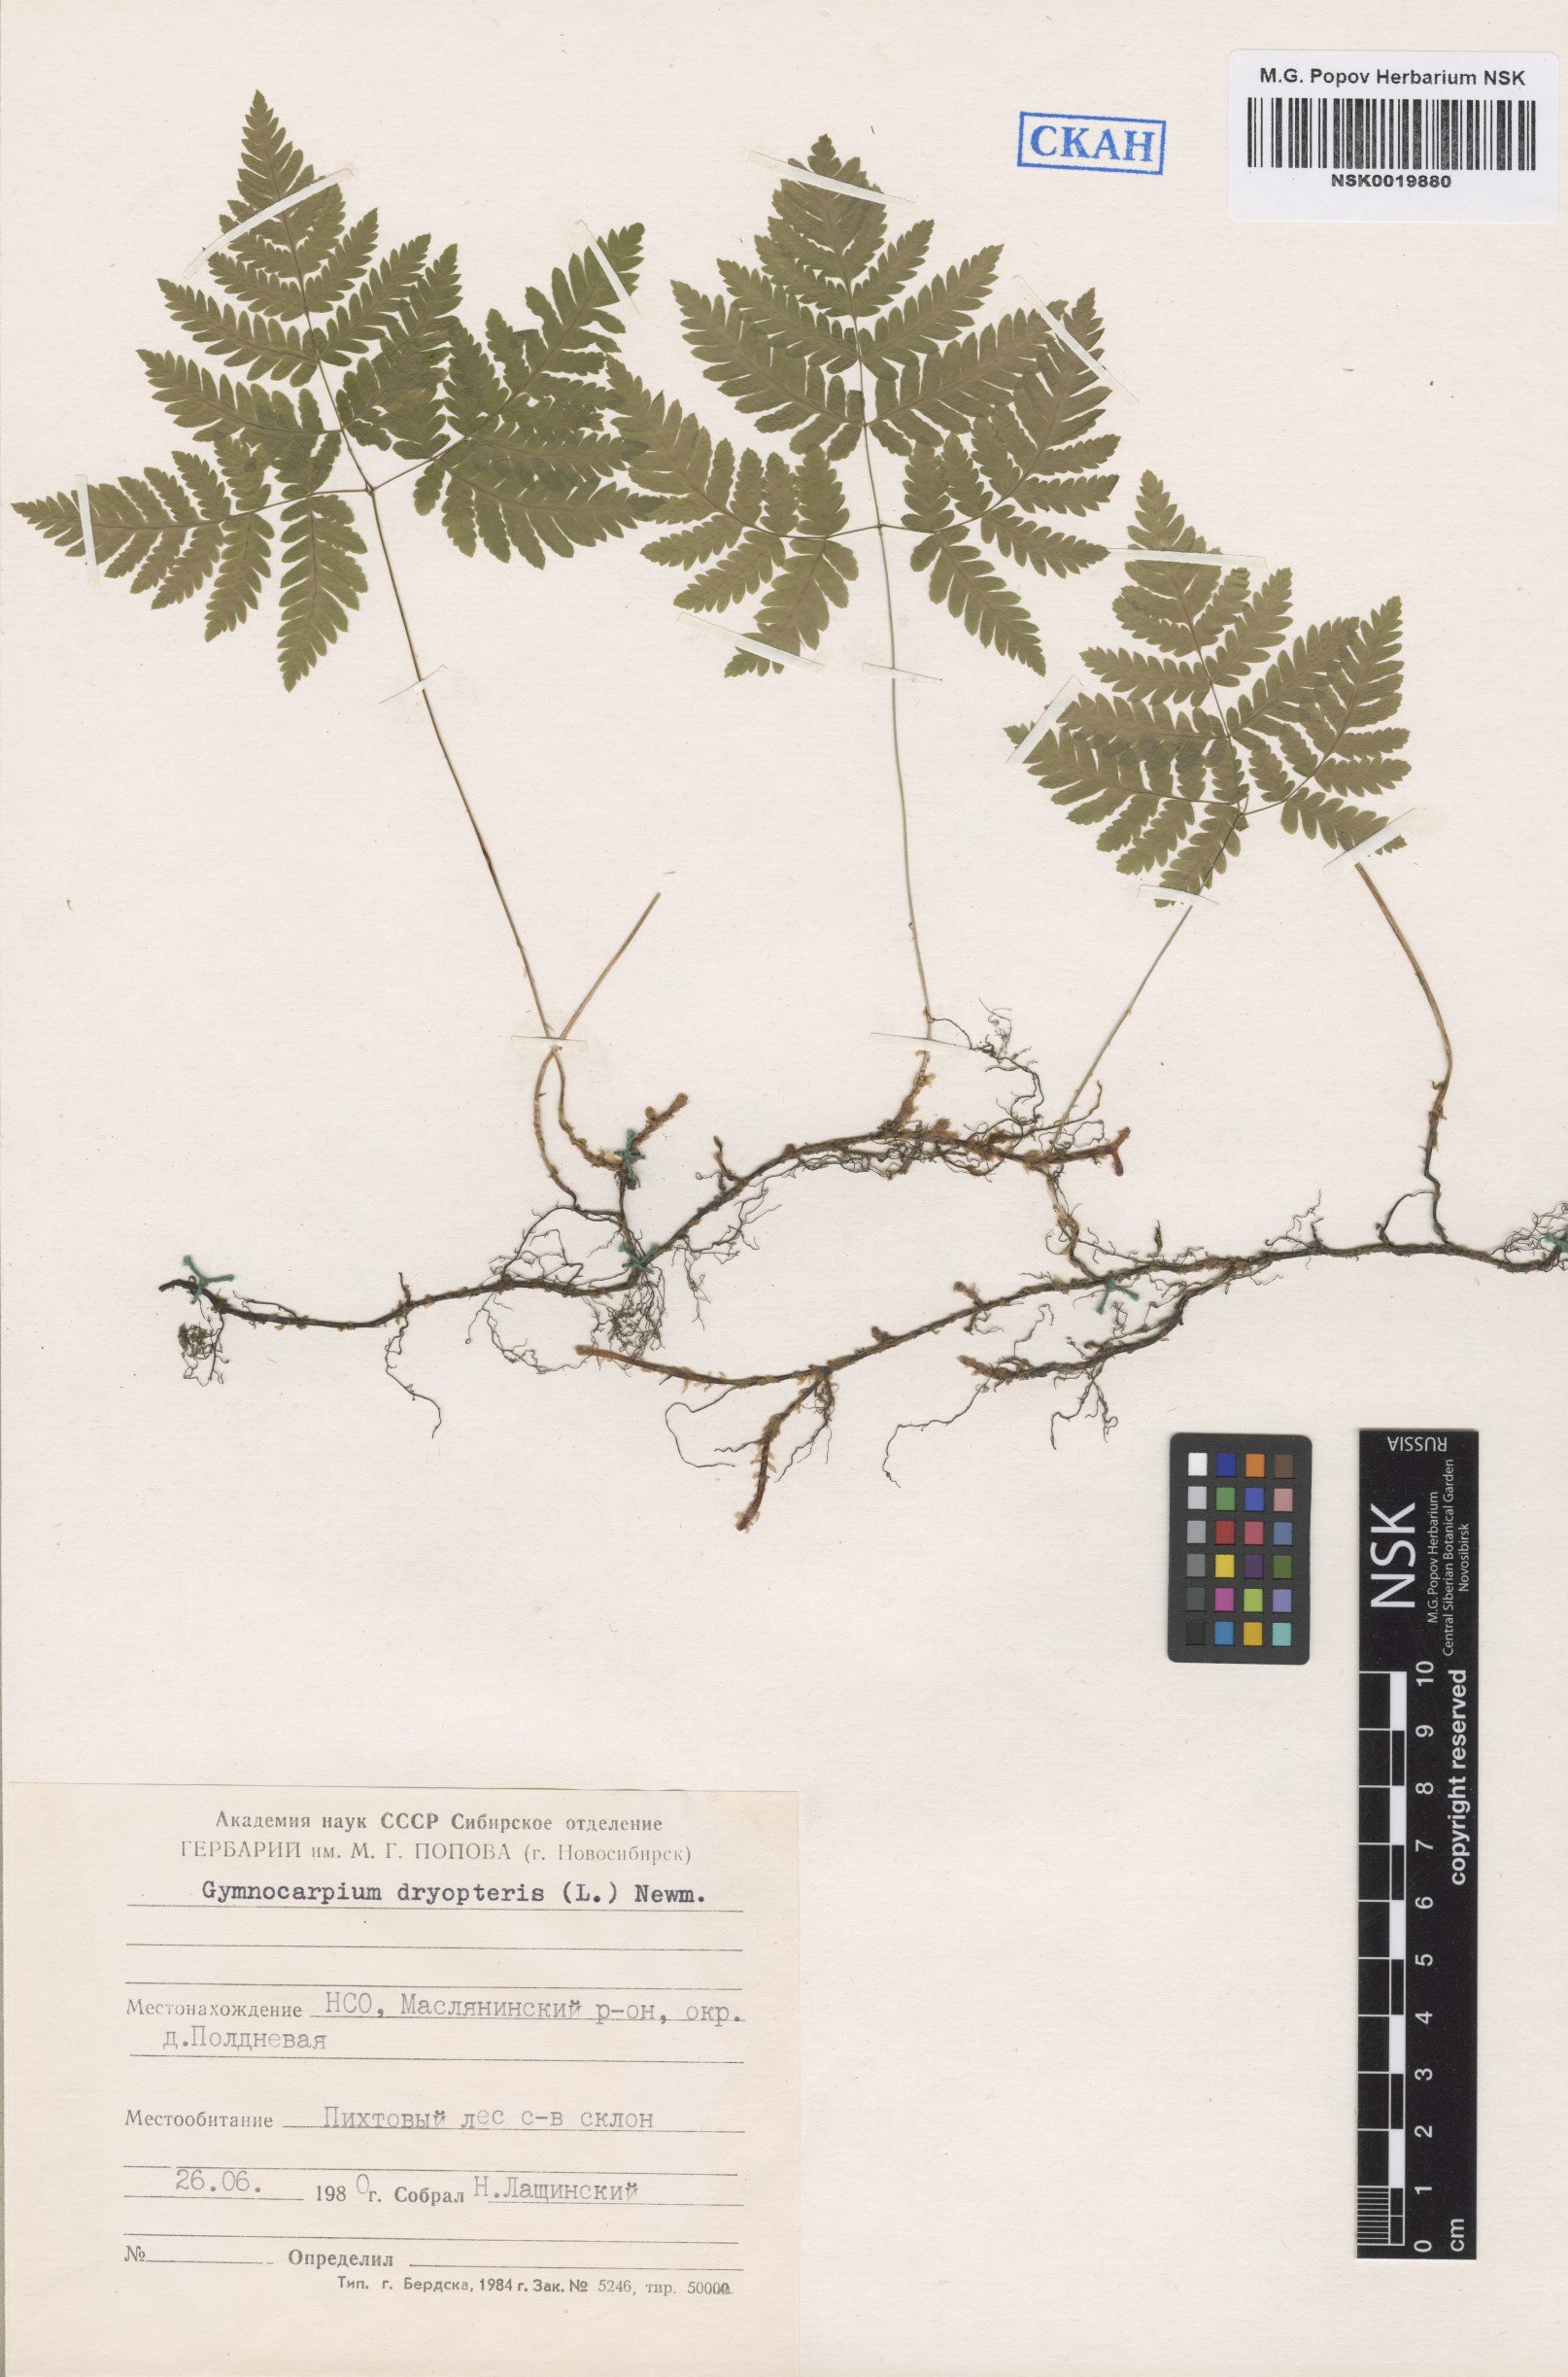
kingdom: Plantae
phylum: Tracheophyta
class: Polypodiopsida
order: Polypodiales
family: Cystopteridaceae
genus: Gymnocarpium
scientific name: Gymnocarpium dryopteris
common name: Oak fern
